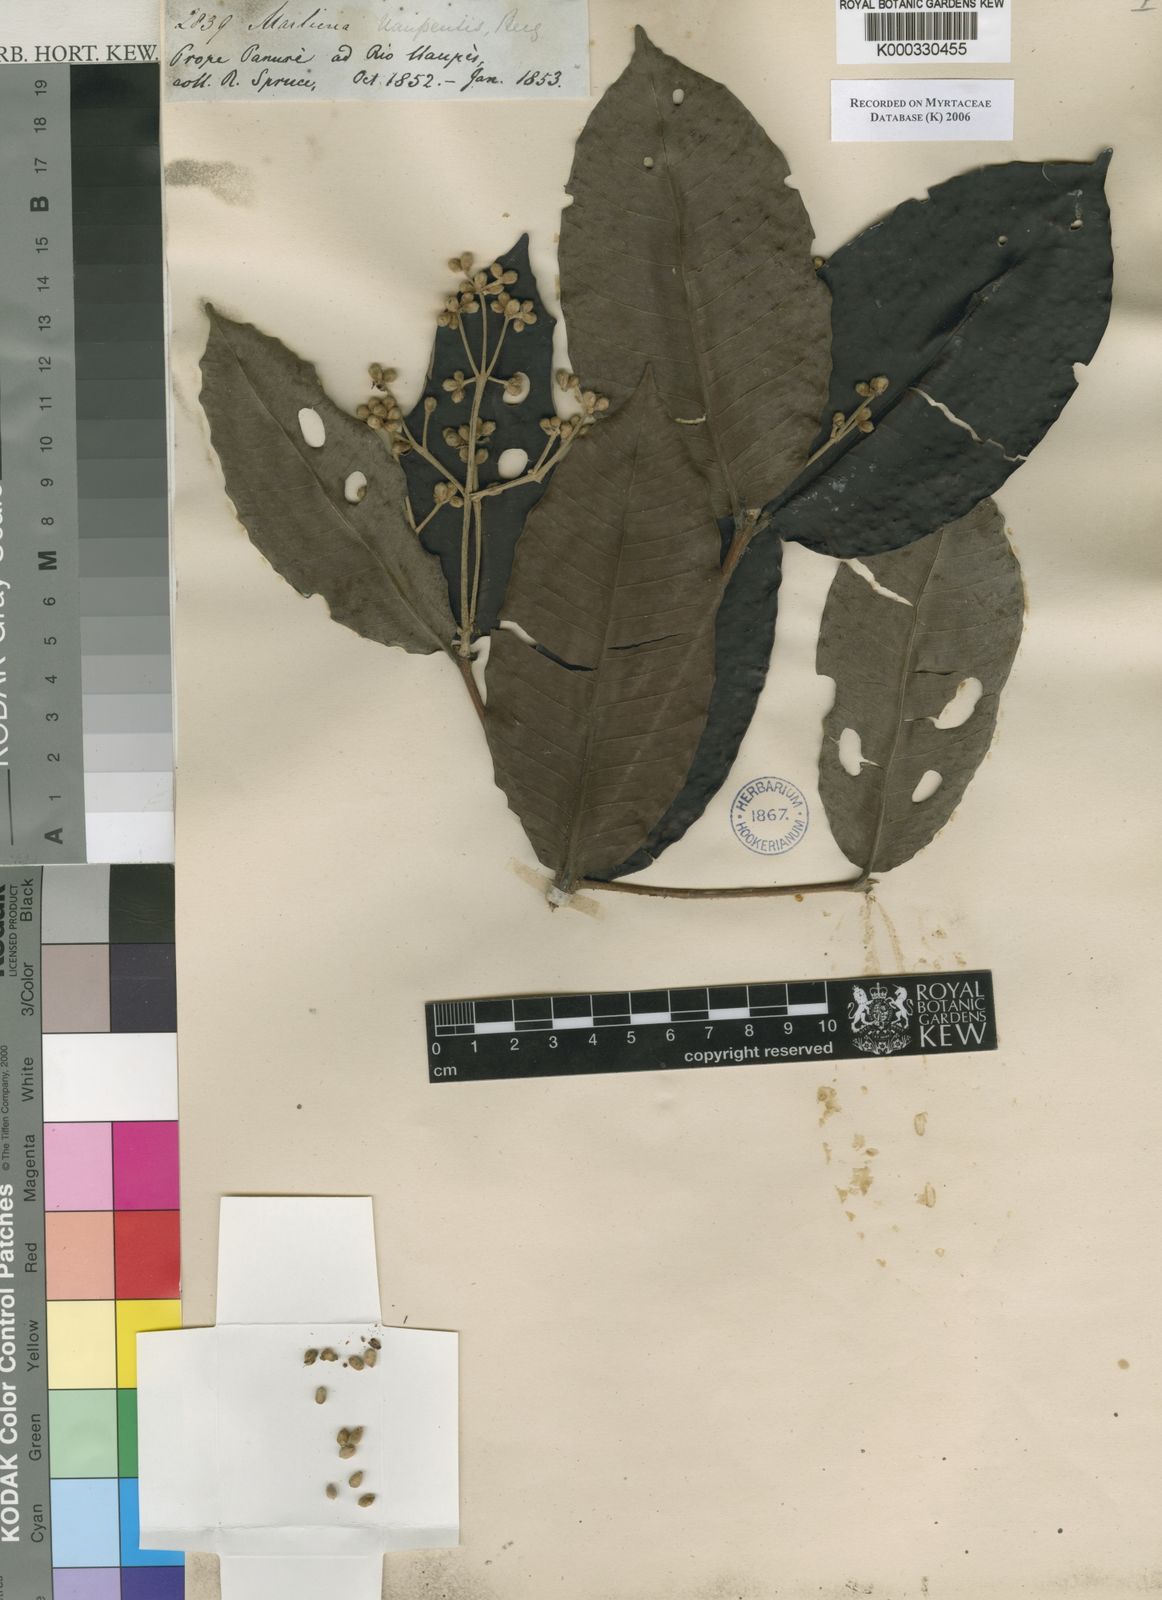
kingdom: Plantae
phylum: Tracheophyta
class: Magnoliopsida
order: Myrtales
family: Myrtaceae
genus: Myrcia
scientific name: Myrcia argentigemma
